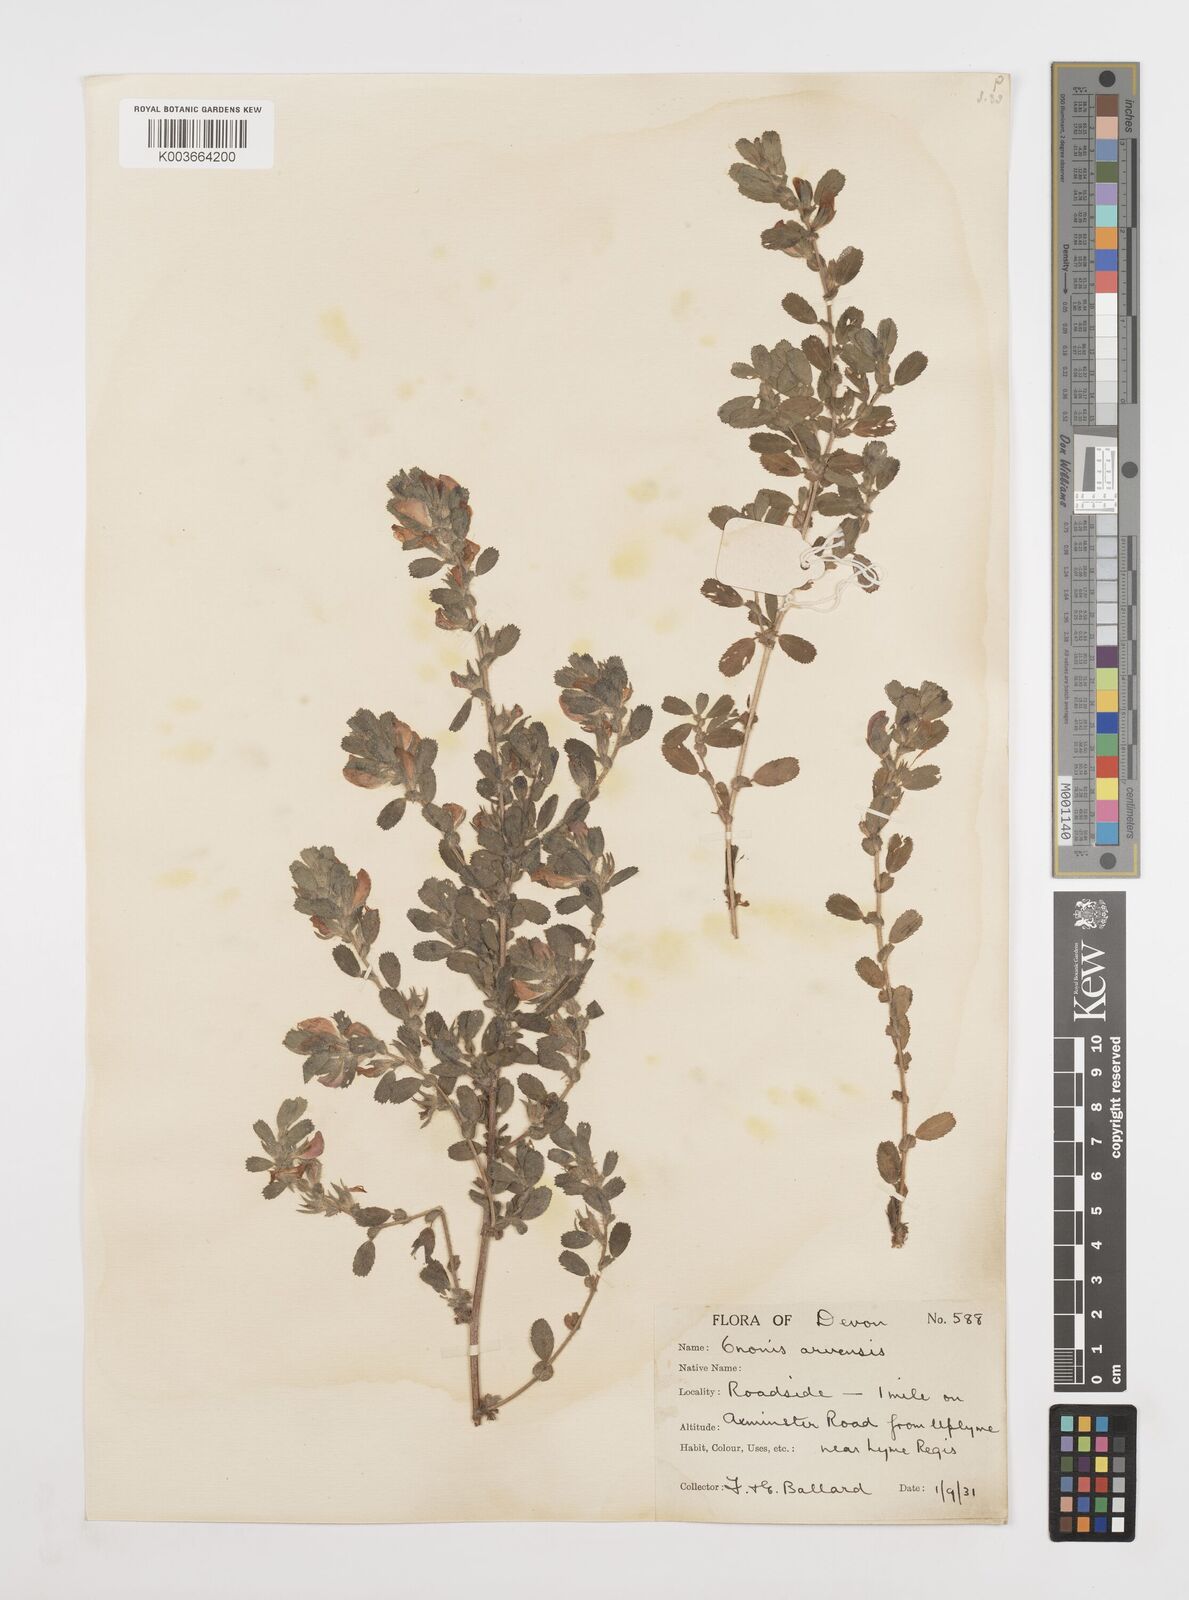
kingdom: Plantae
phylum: Tracheophyta
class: Magnoliopsida
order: Fabales
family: Fabaceae
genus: Ononis
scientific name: Ononis spinosa
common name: Spiny restharrow
